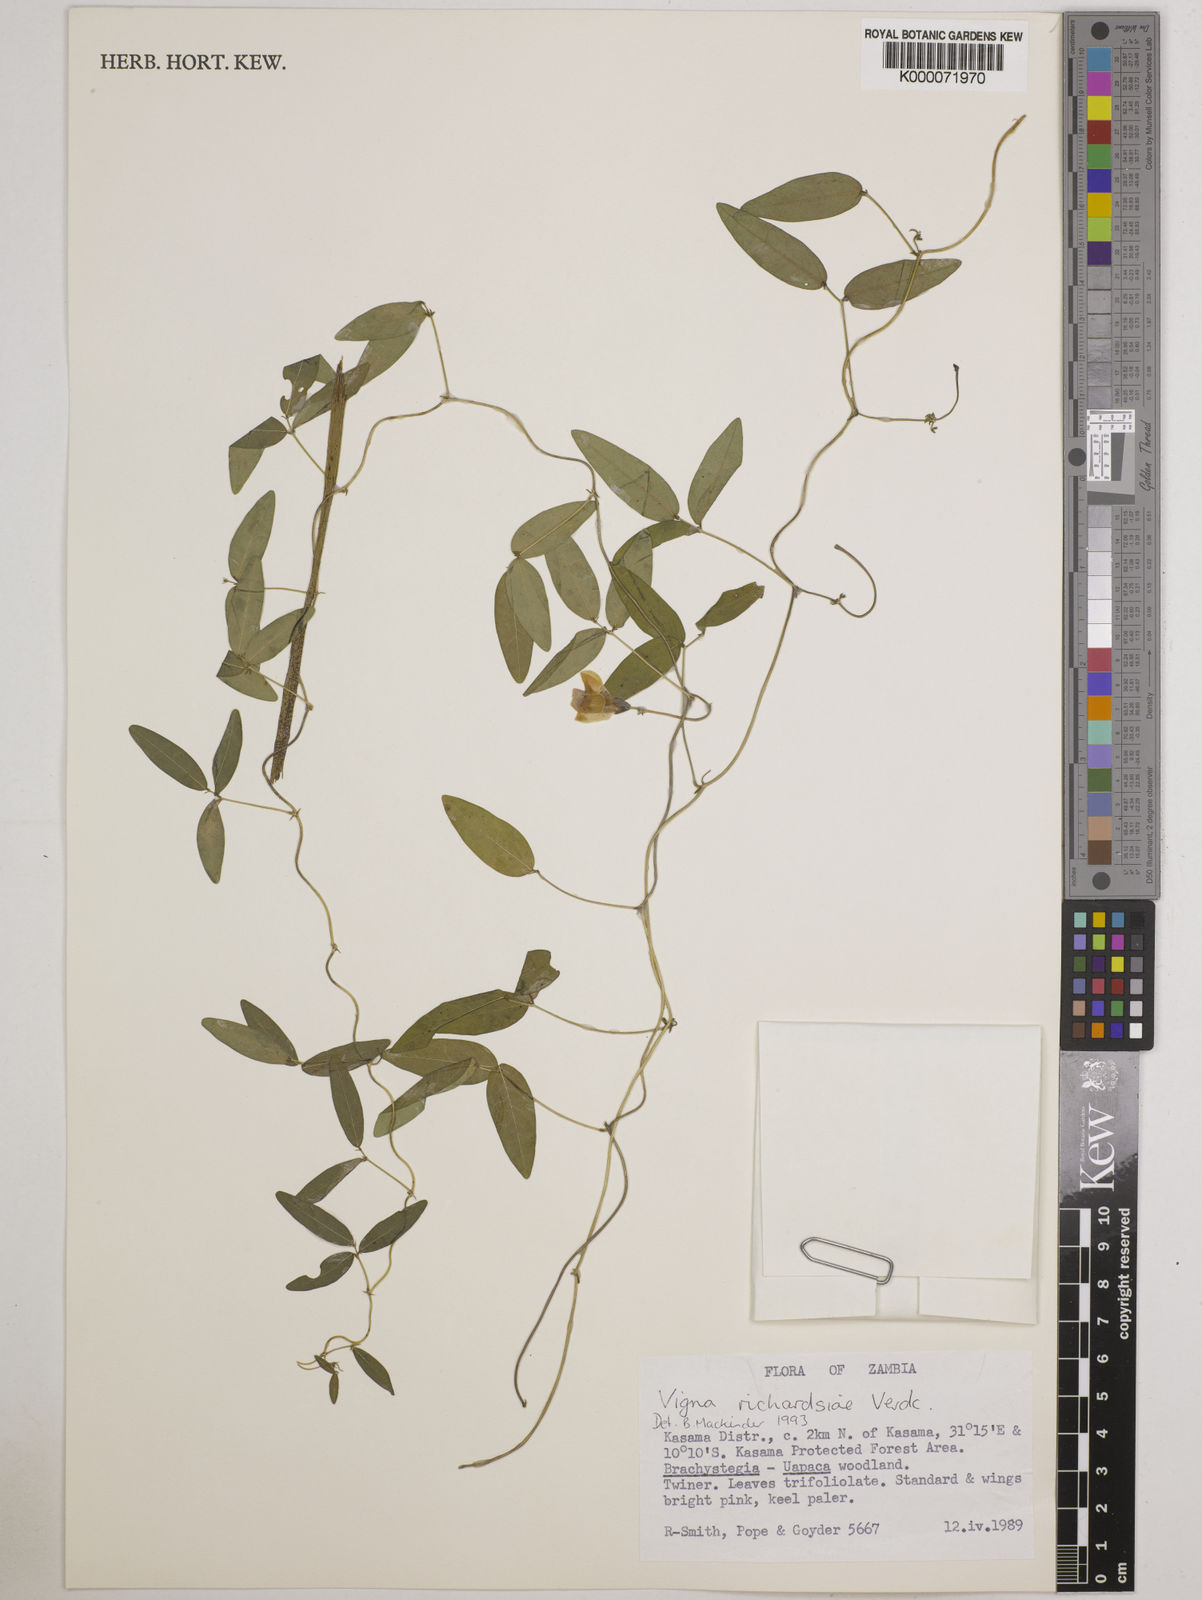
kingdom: Plantae
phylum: Tracheophyta
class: Magnoliopsida
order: Fabales
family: Fabaceae
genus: Vigna
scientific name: Vigna richardsiae
